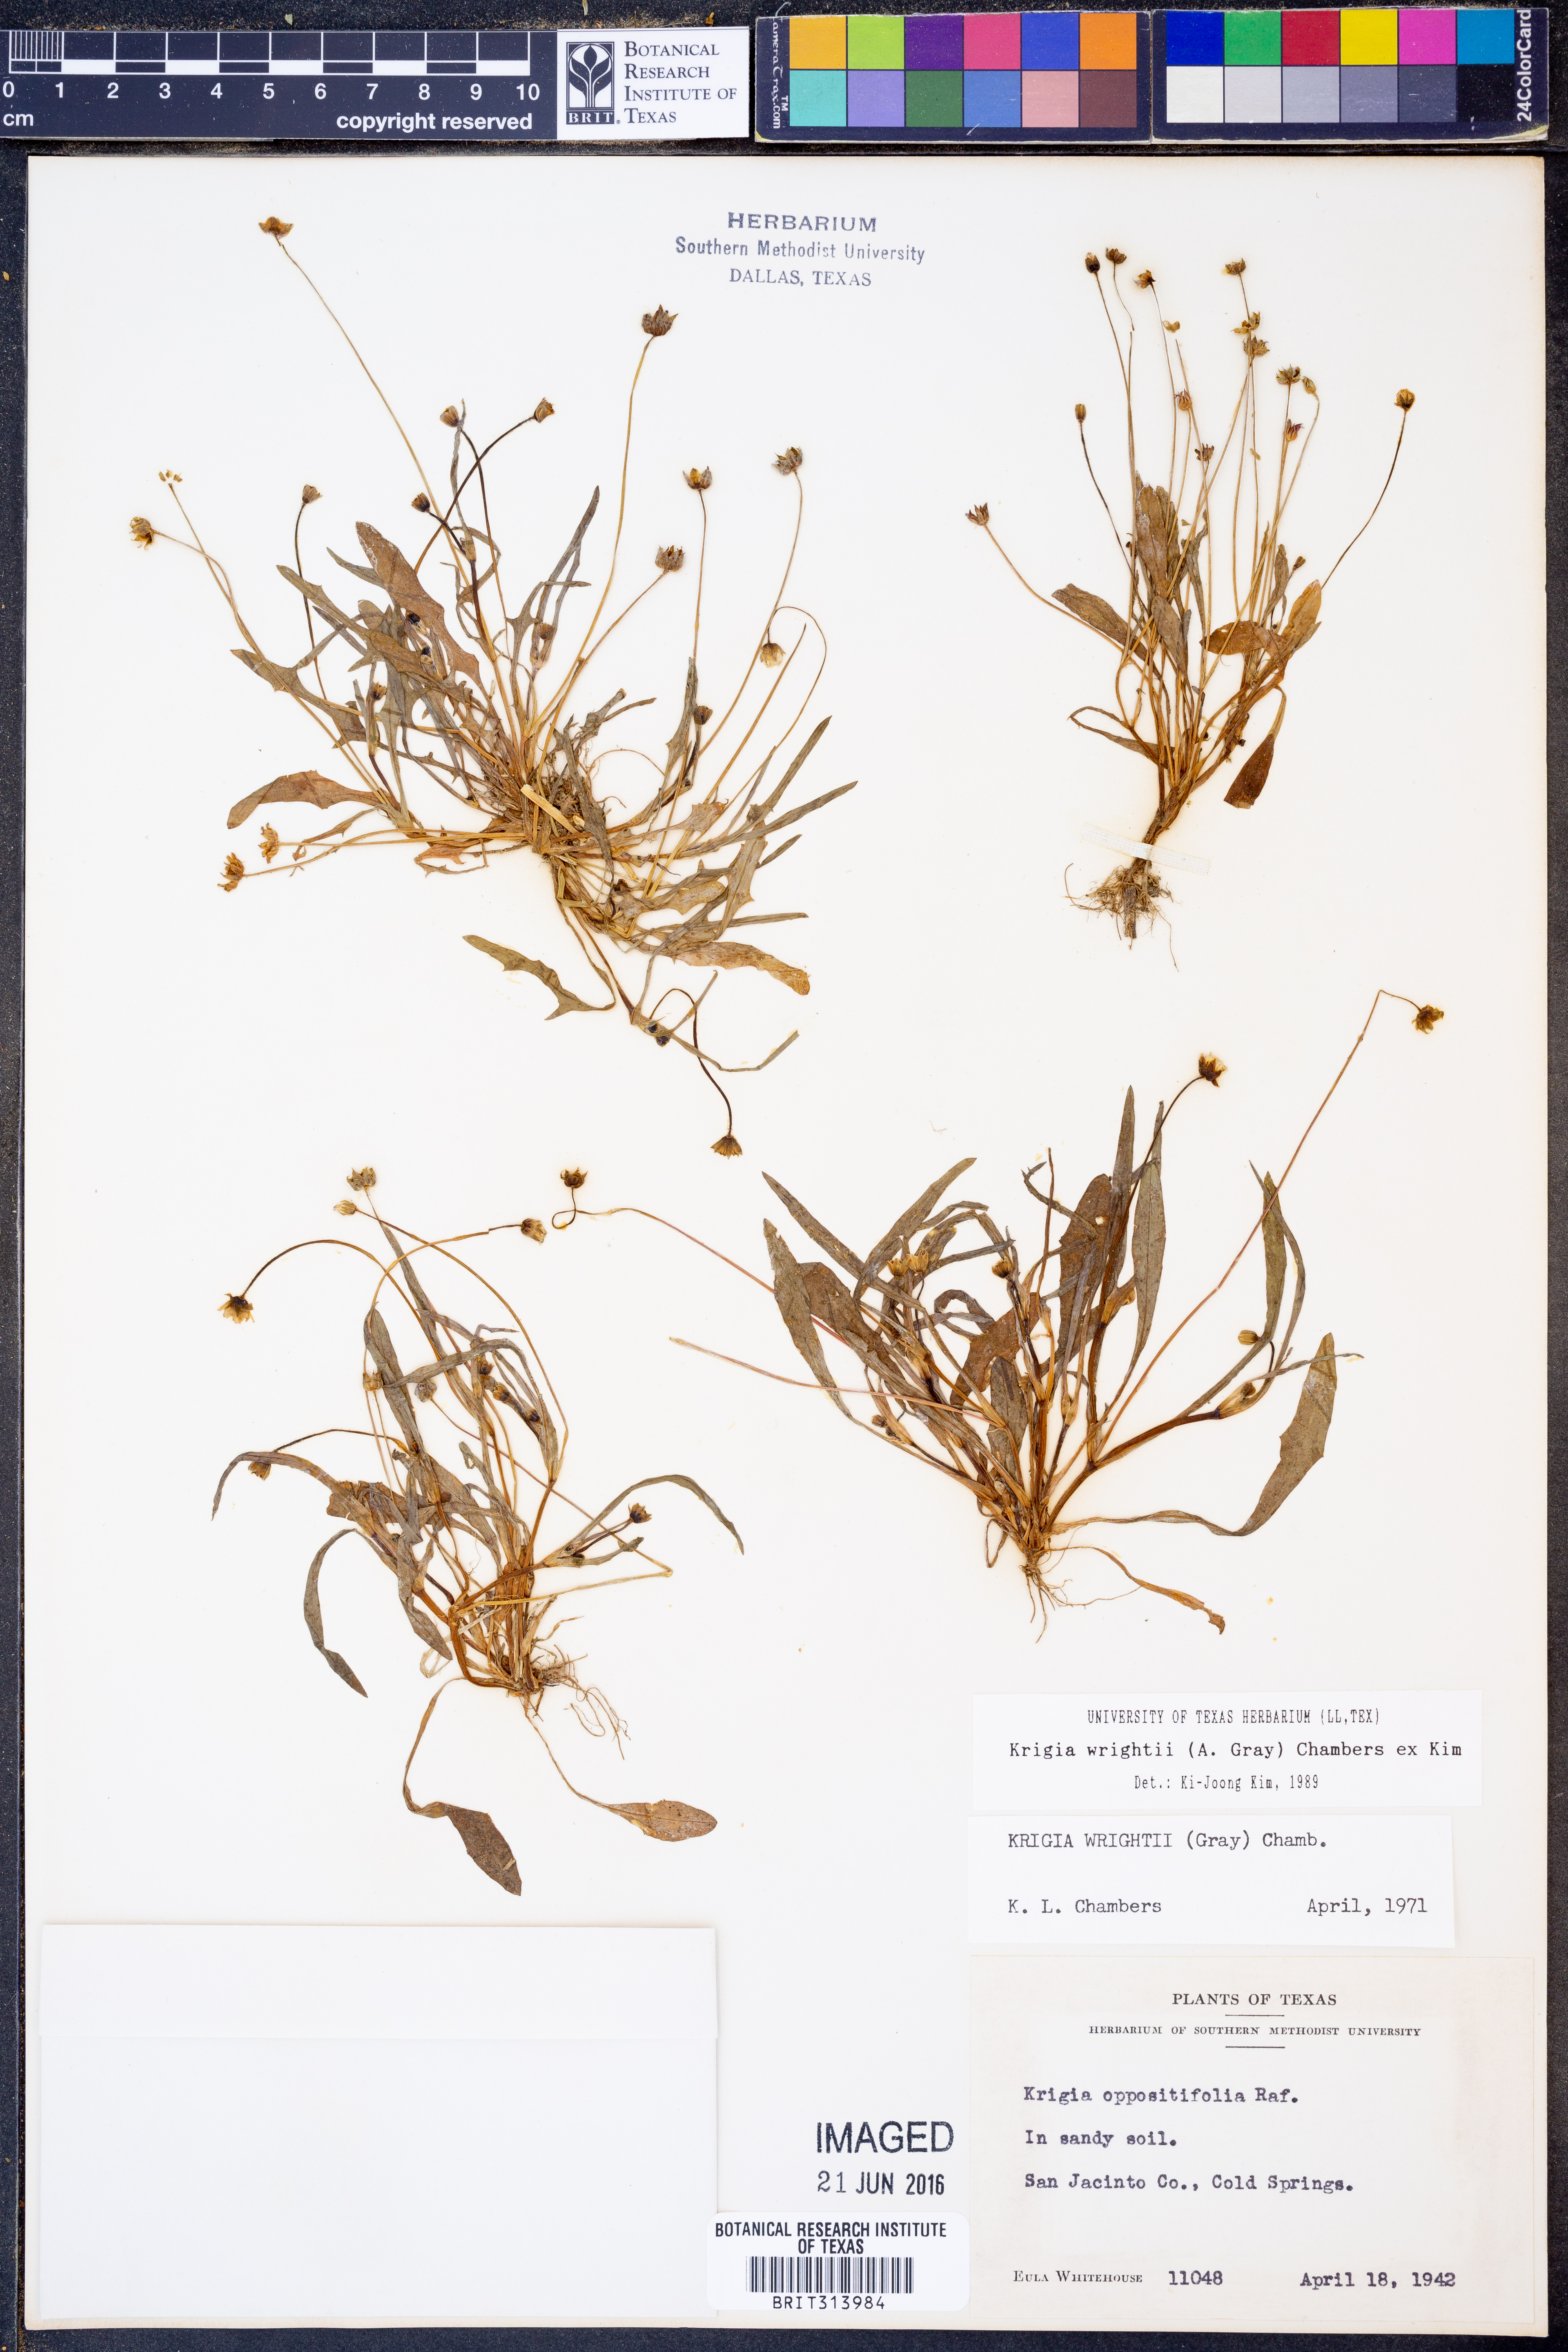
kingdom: Plantae
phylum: Tracheophyta
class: Magnoliopsida
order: Asterales
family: Asteraceae
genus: Krigia
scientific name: Krigia wrightii
